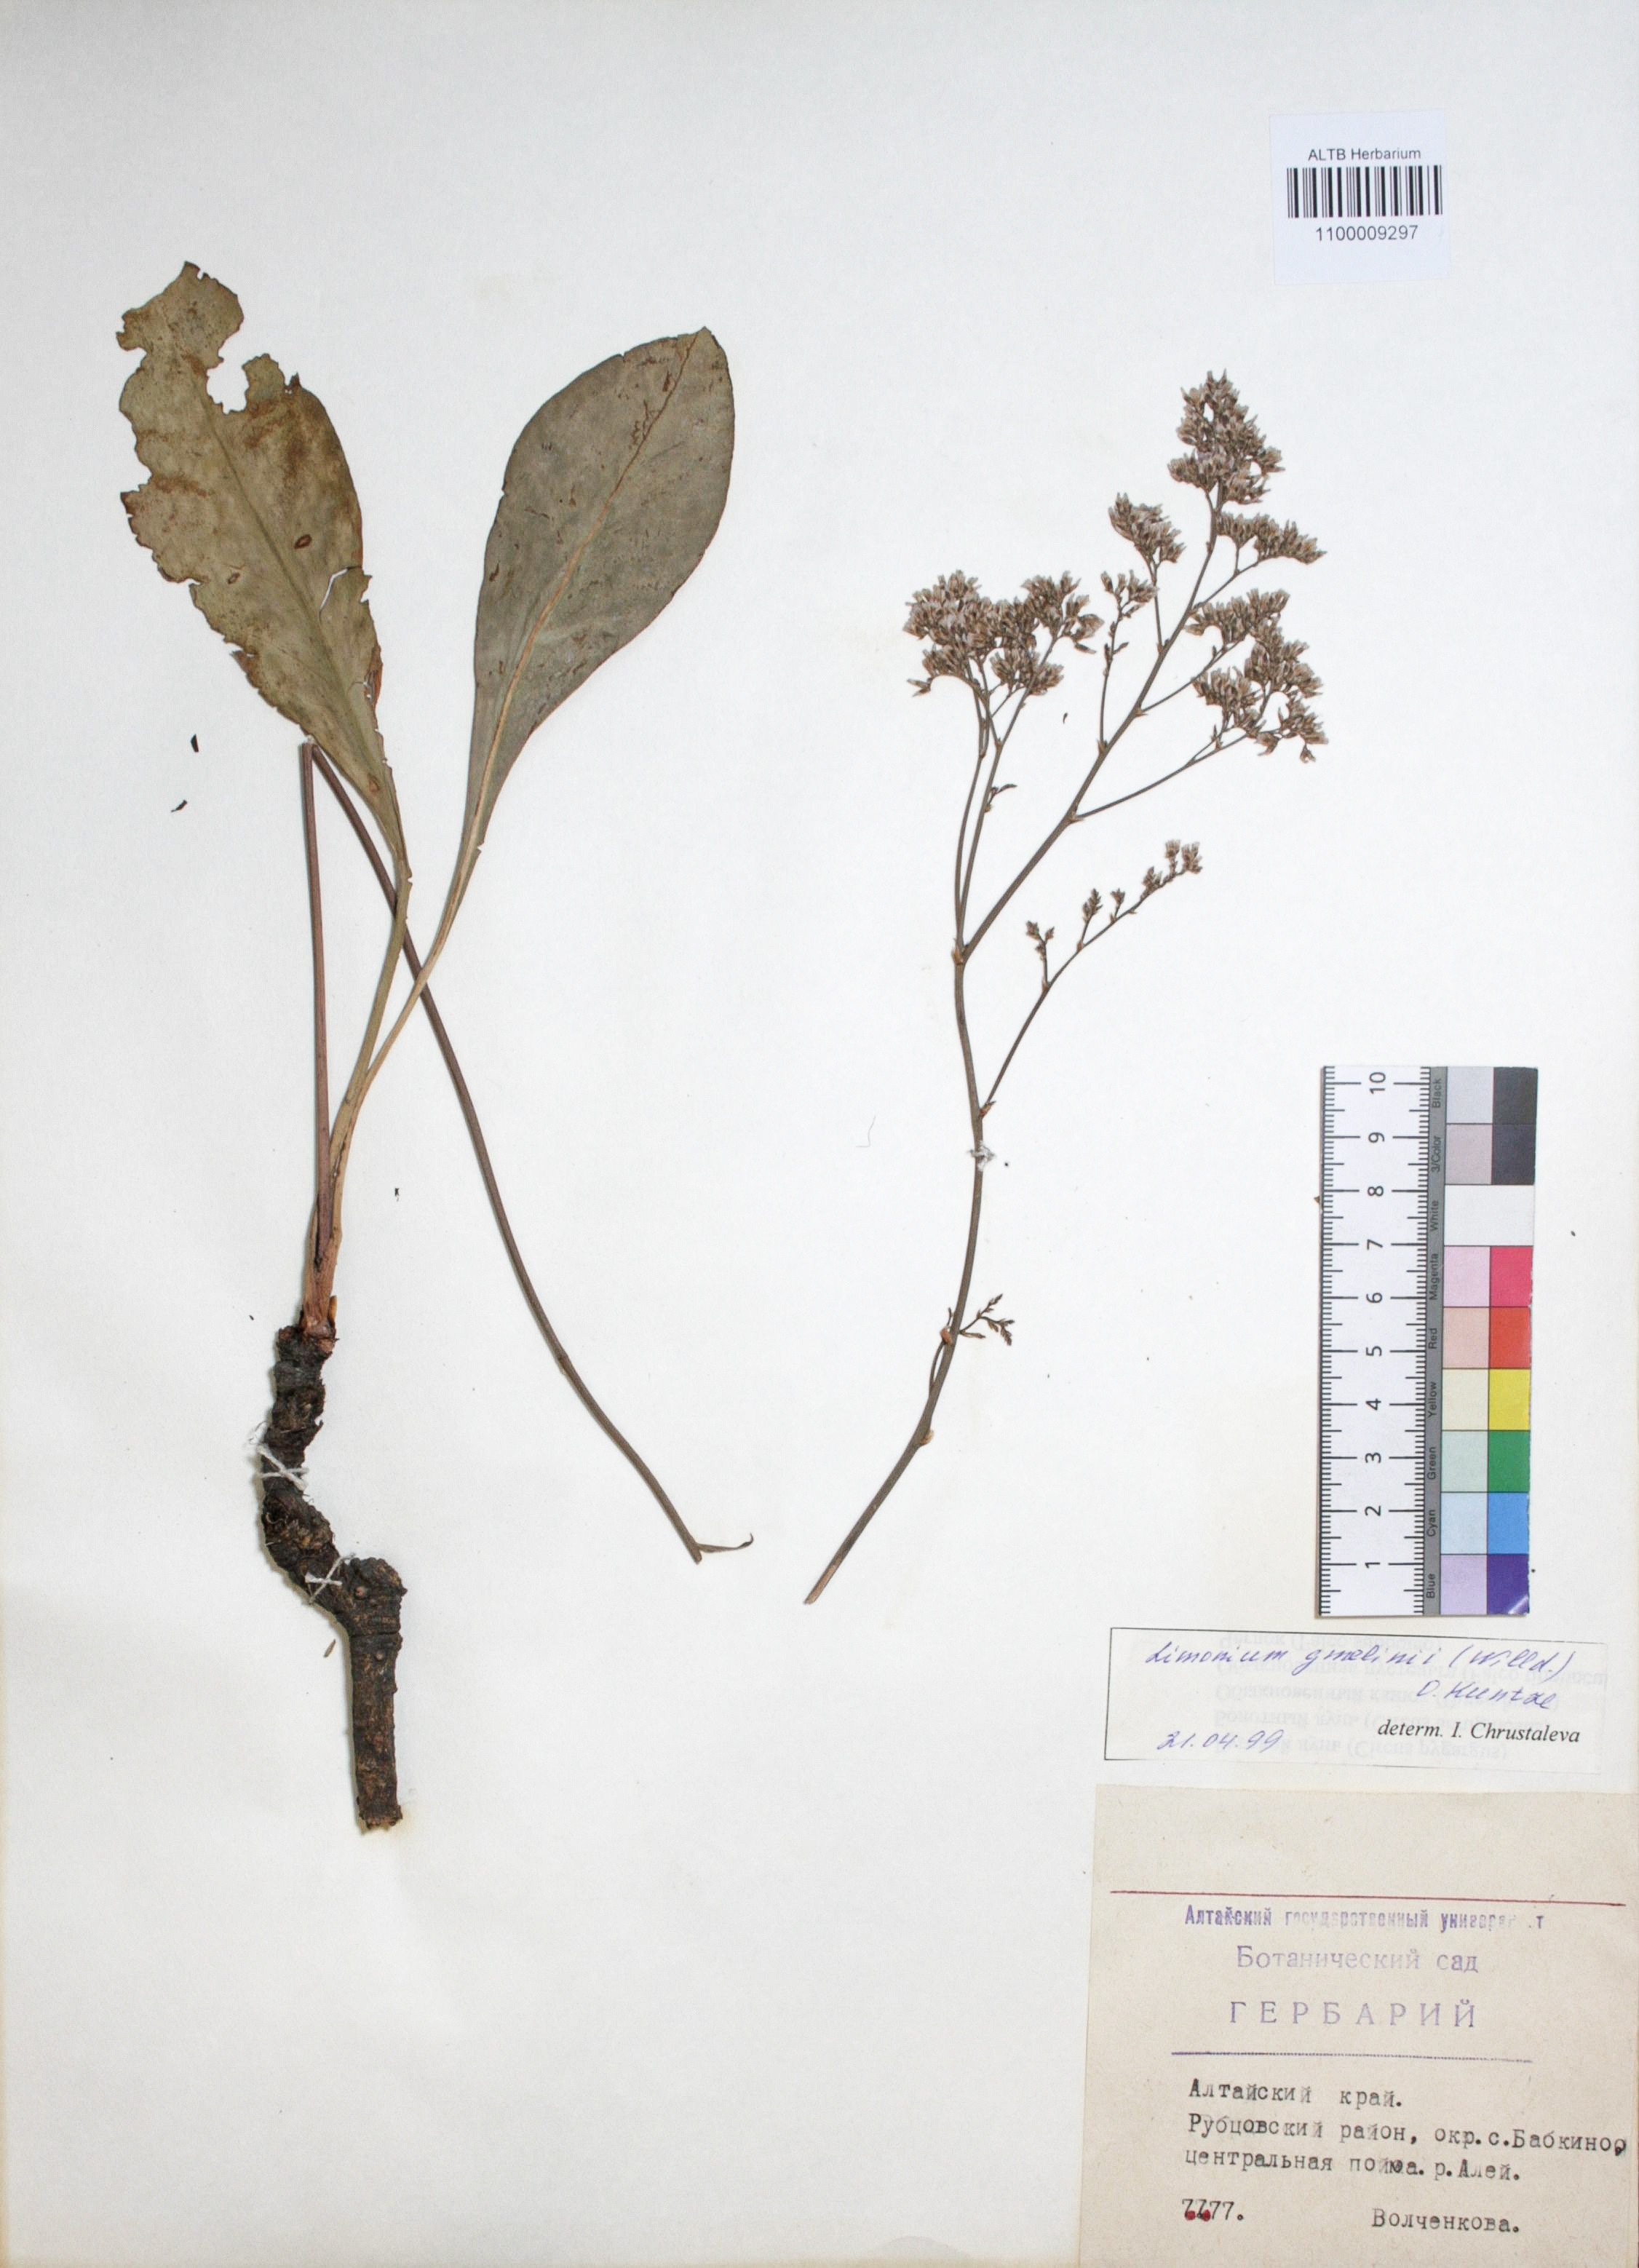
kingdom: Plantae
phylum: Tracheophyta
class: Magnoliopsida
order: Caryophyllales
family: Plumbaginaceae
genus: Limonium
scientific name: Limonium gmelini
